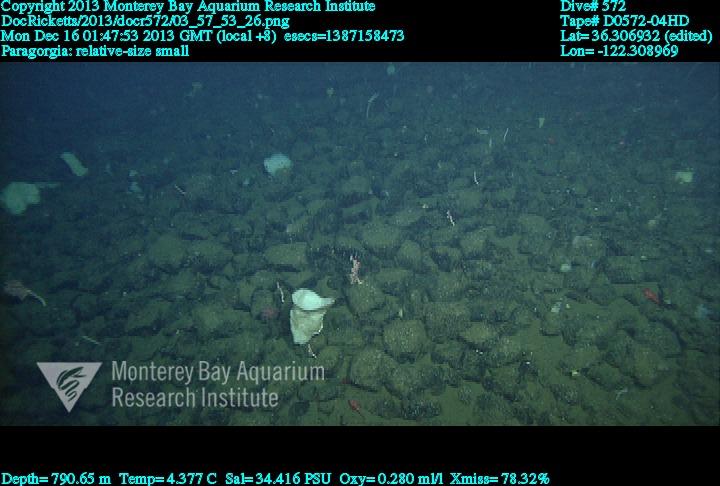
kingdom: Animalia
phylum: Cnidaria
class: Anthozoa
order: Scleralcyonacea
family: Coralliidae
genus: Sibogagorgia
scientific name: Sibogagorgia cauliflora
